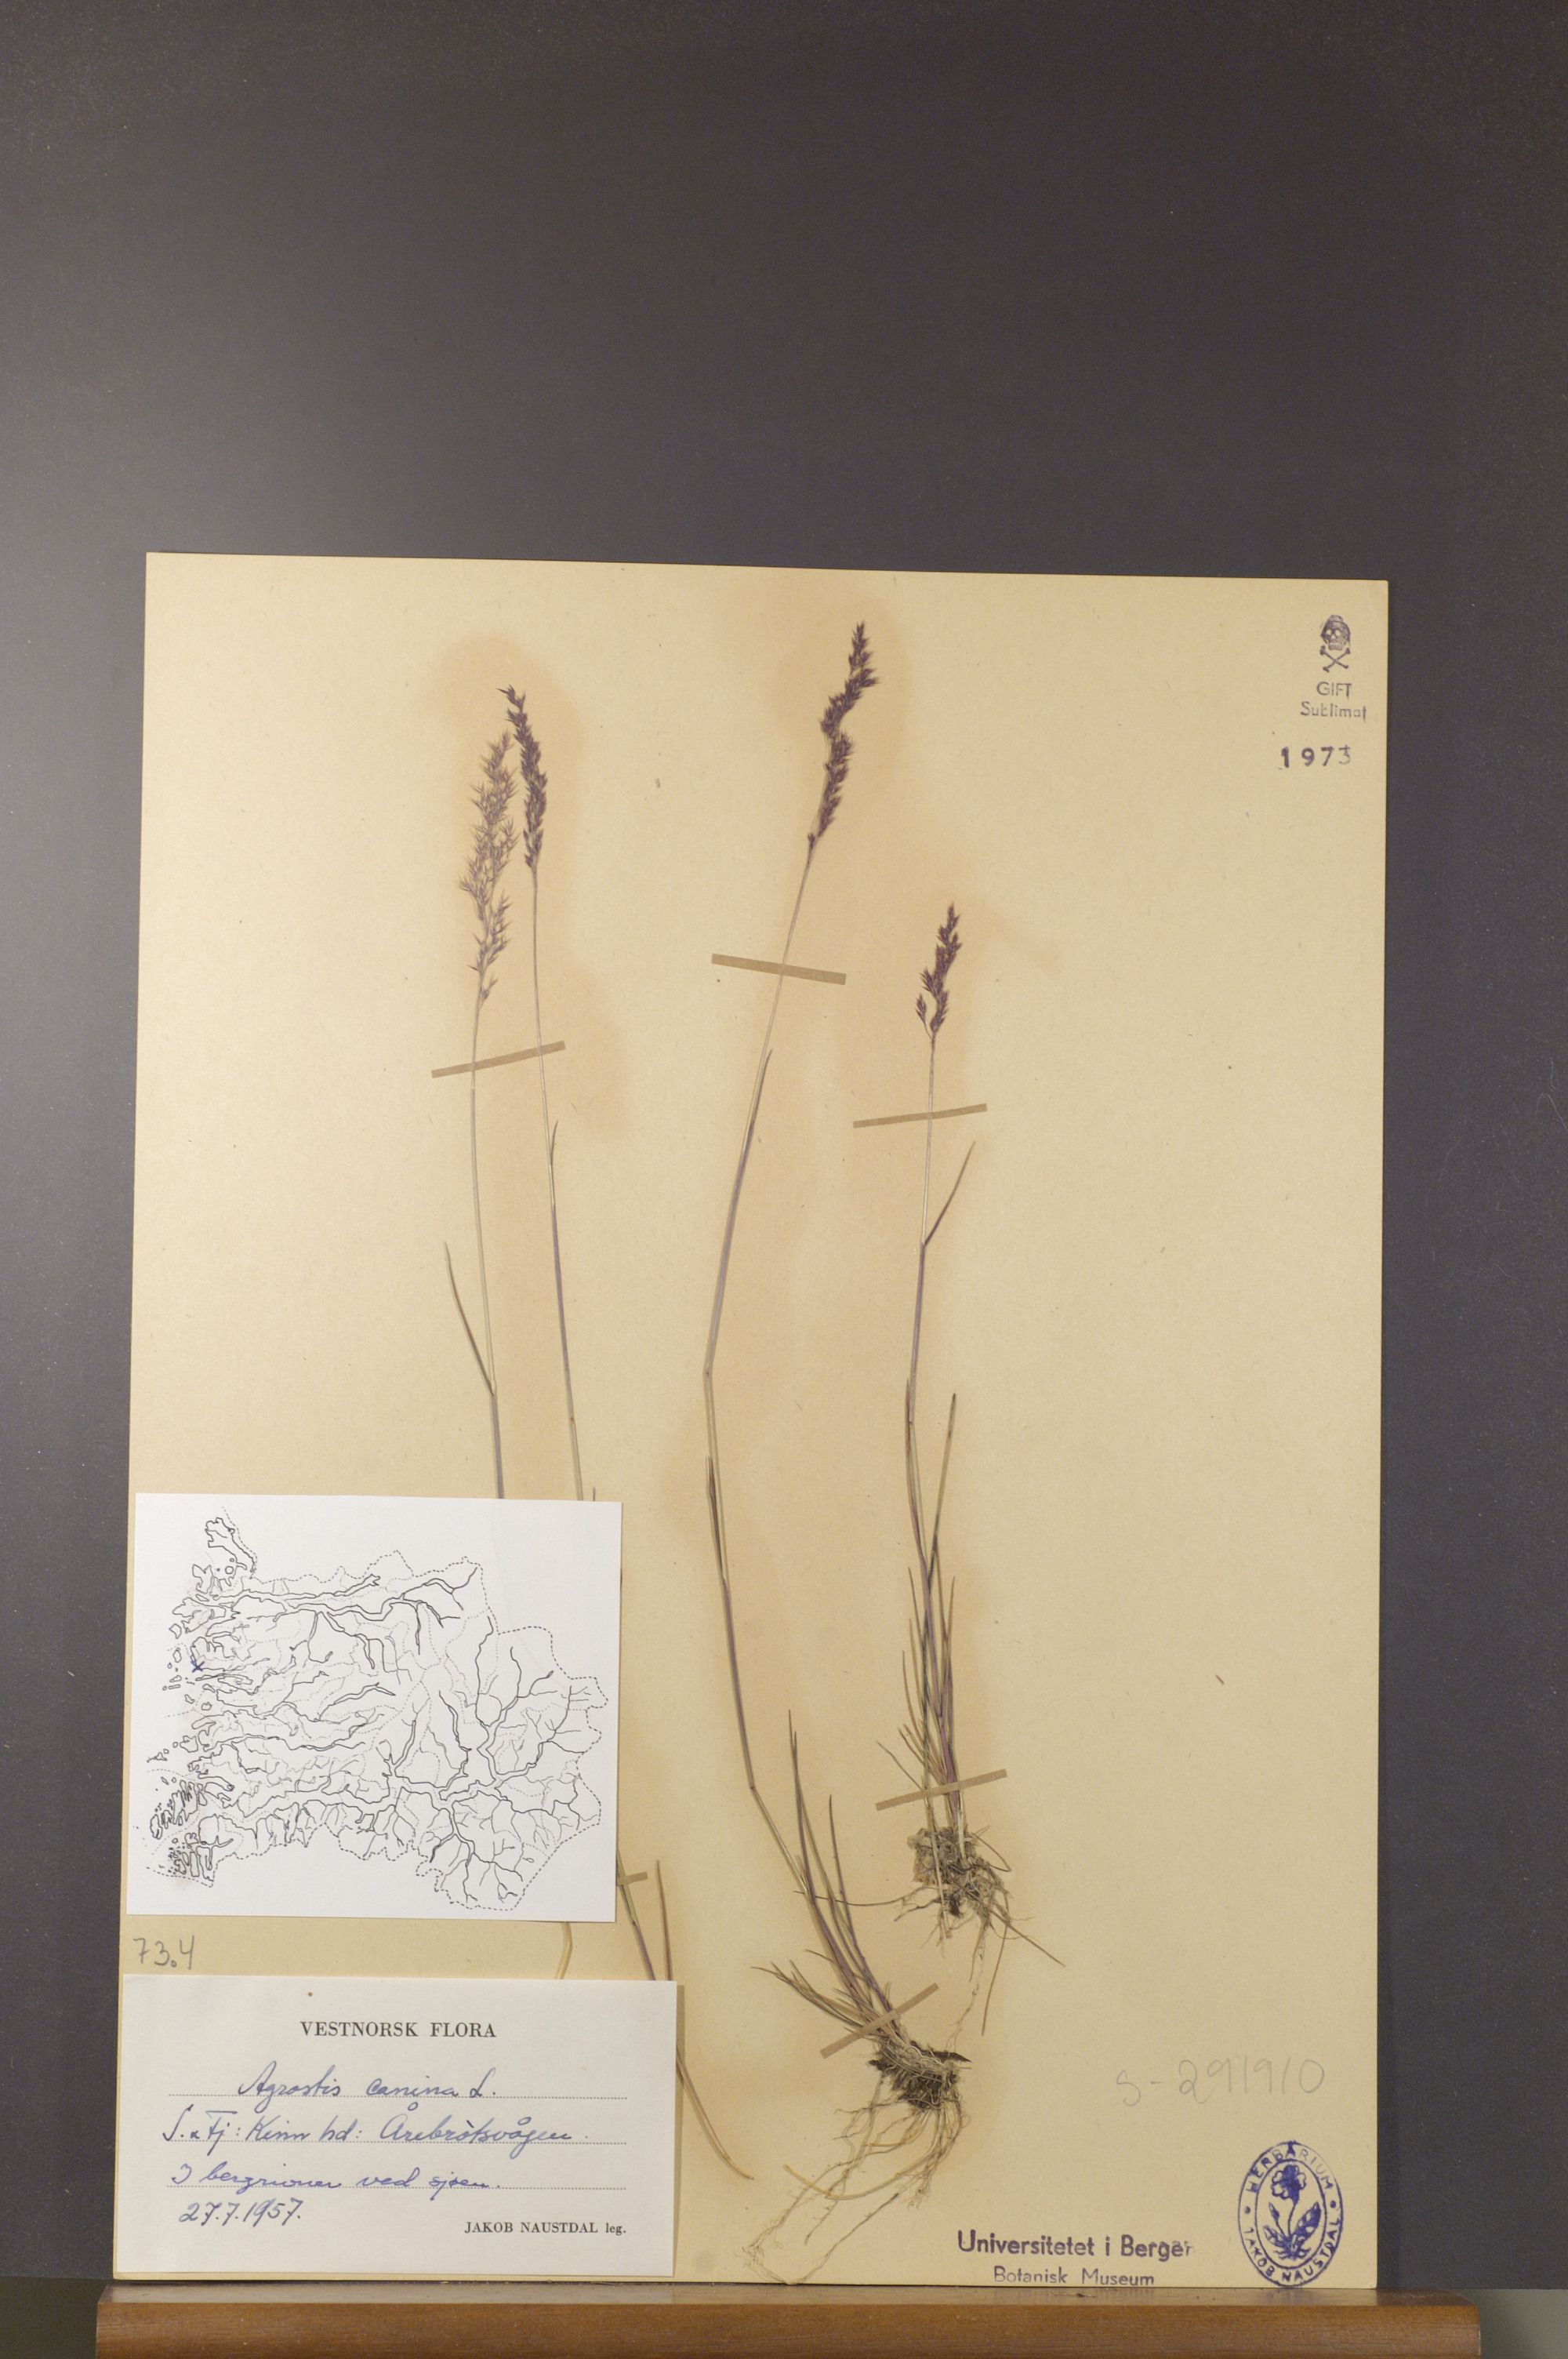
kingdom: Plantae
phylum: Tracheophyta
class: Liliopsida
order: Poales
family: Poaceae
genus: Agrostis
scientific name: Agrostis canina
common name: Velvet bent
